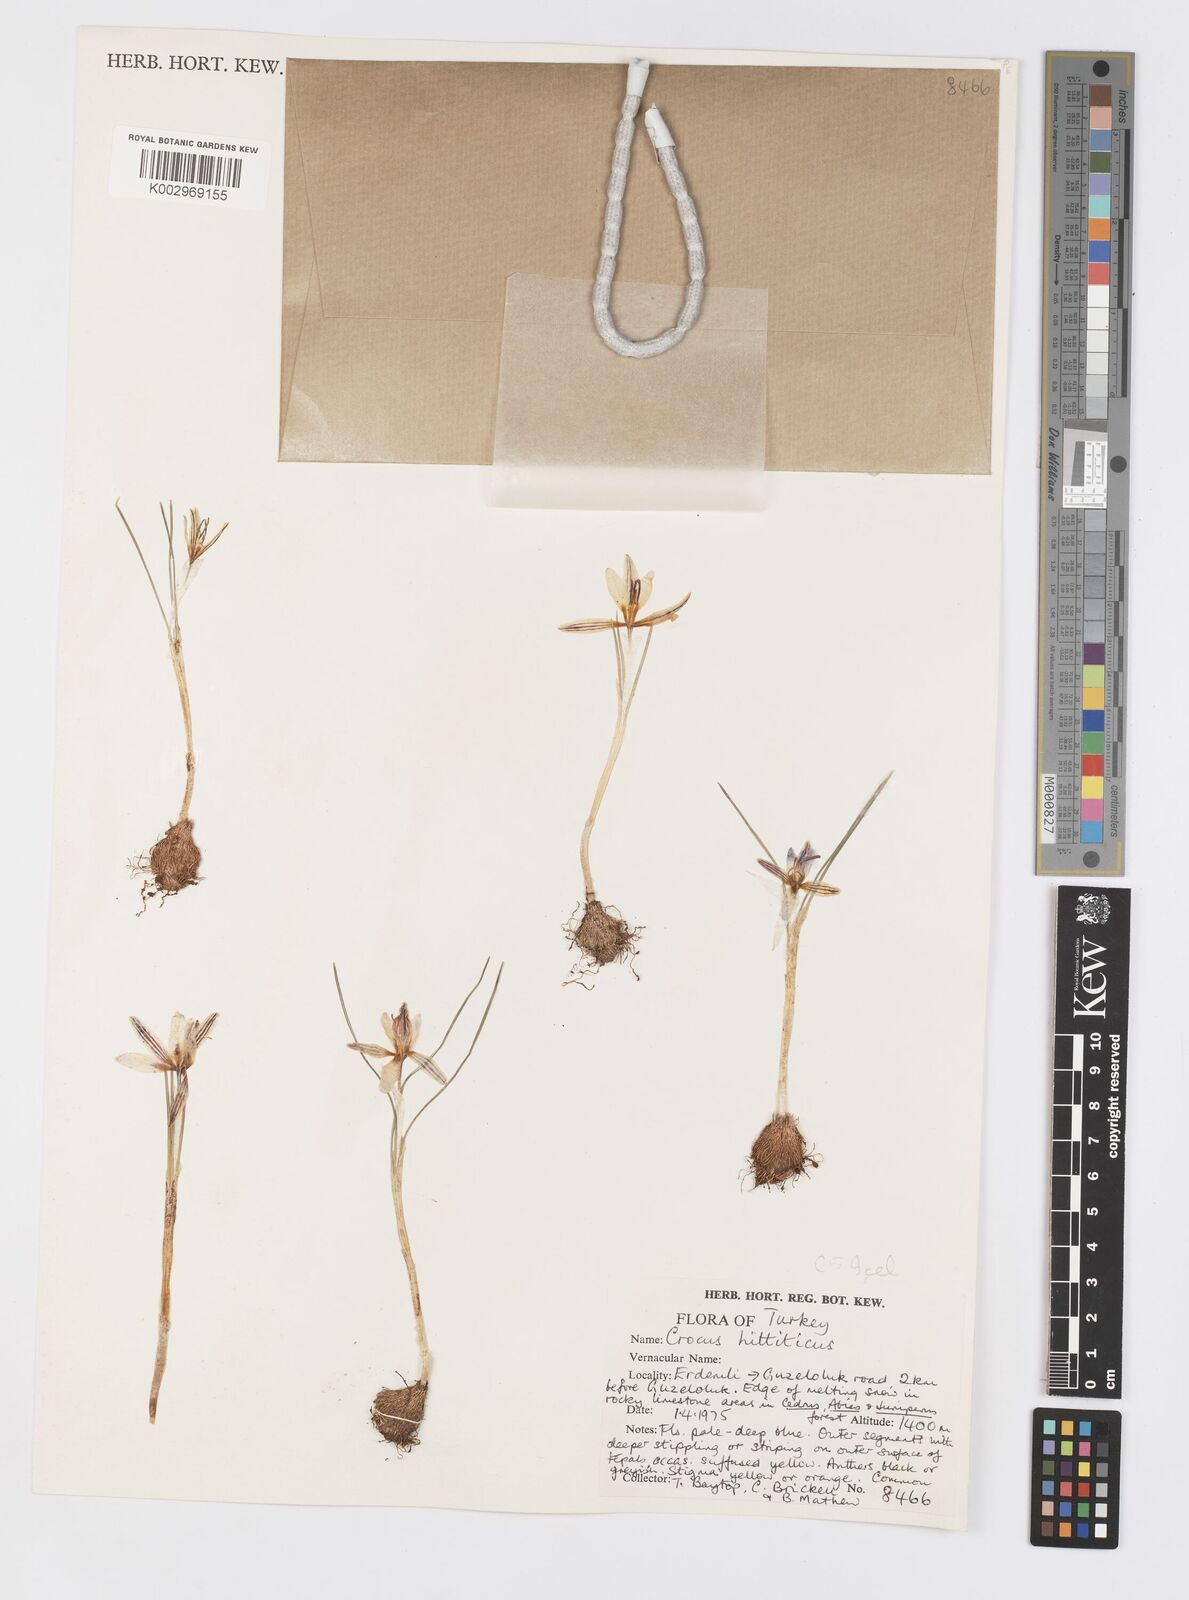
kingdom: Plantae
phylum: Tracheophyta
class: Liliopsida
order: Asparagales
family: Iridaceae
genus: Crocus
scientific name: Crocus hittiticus
